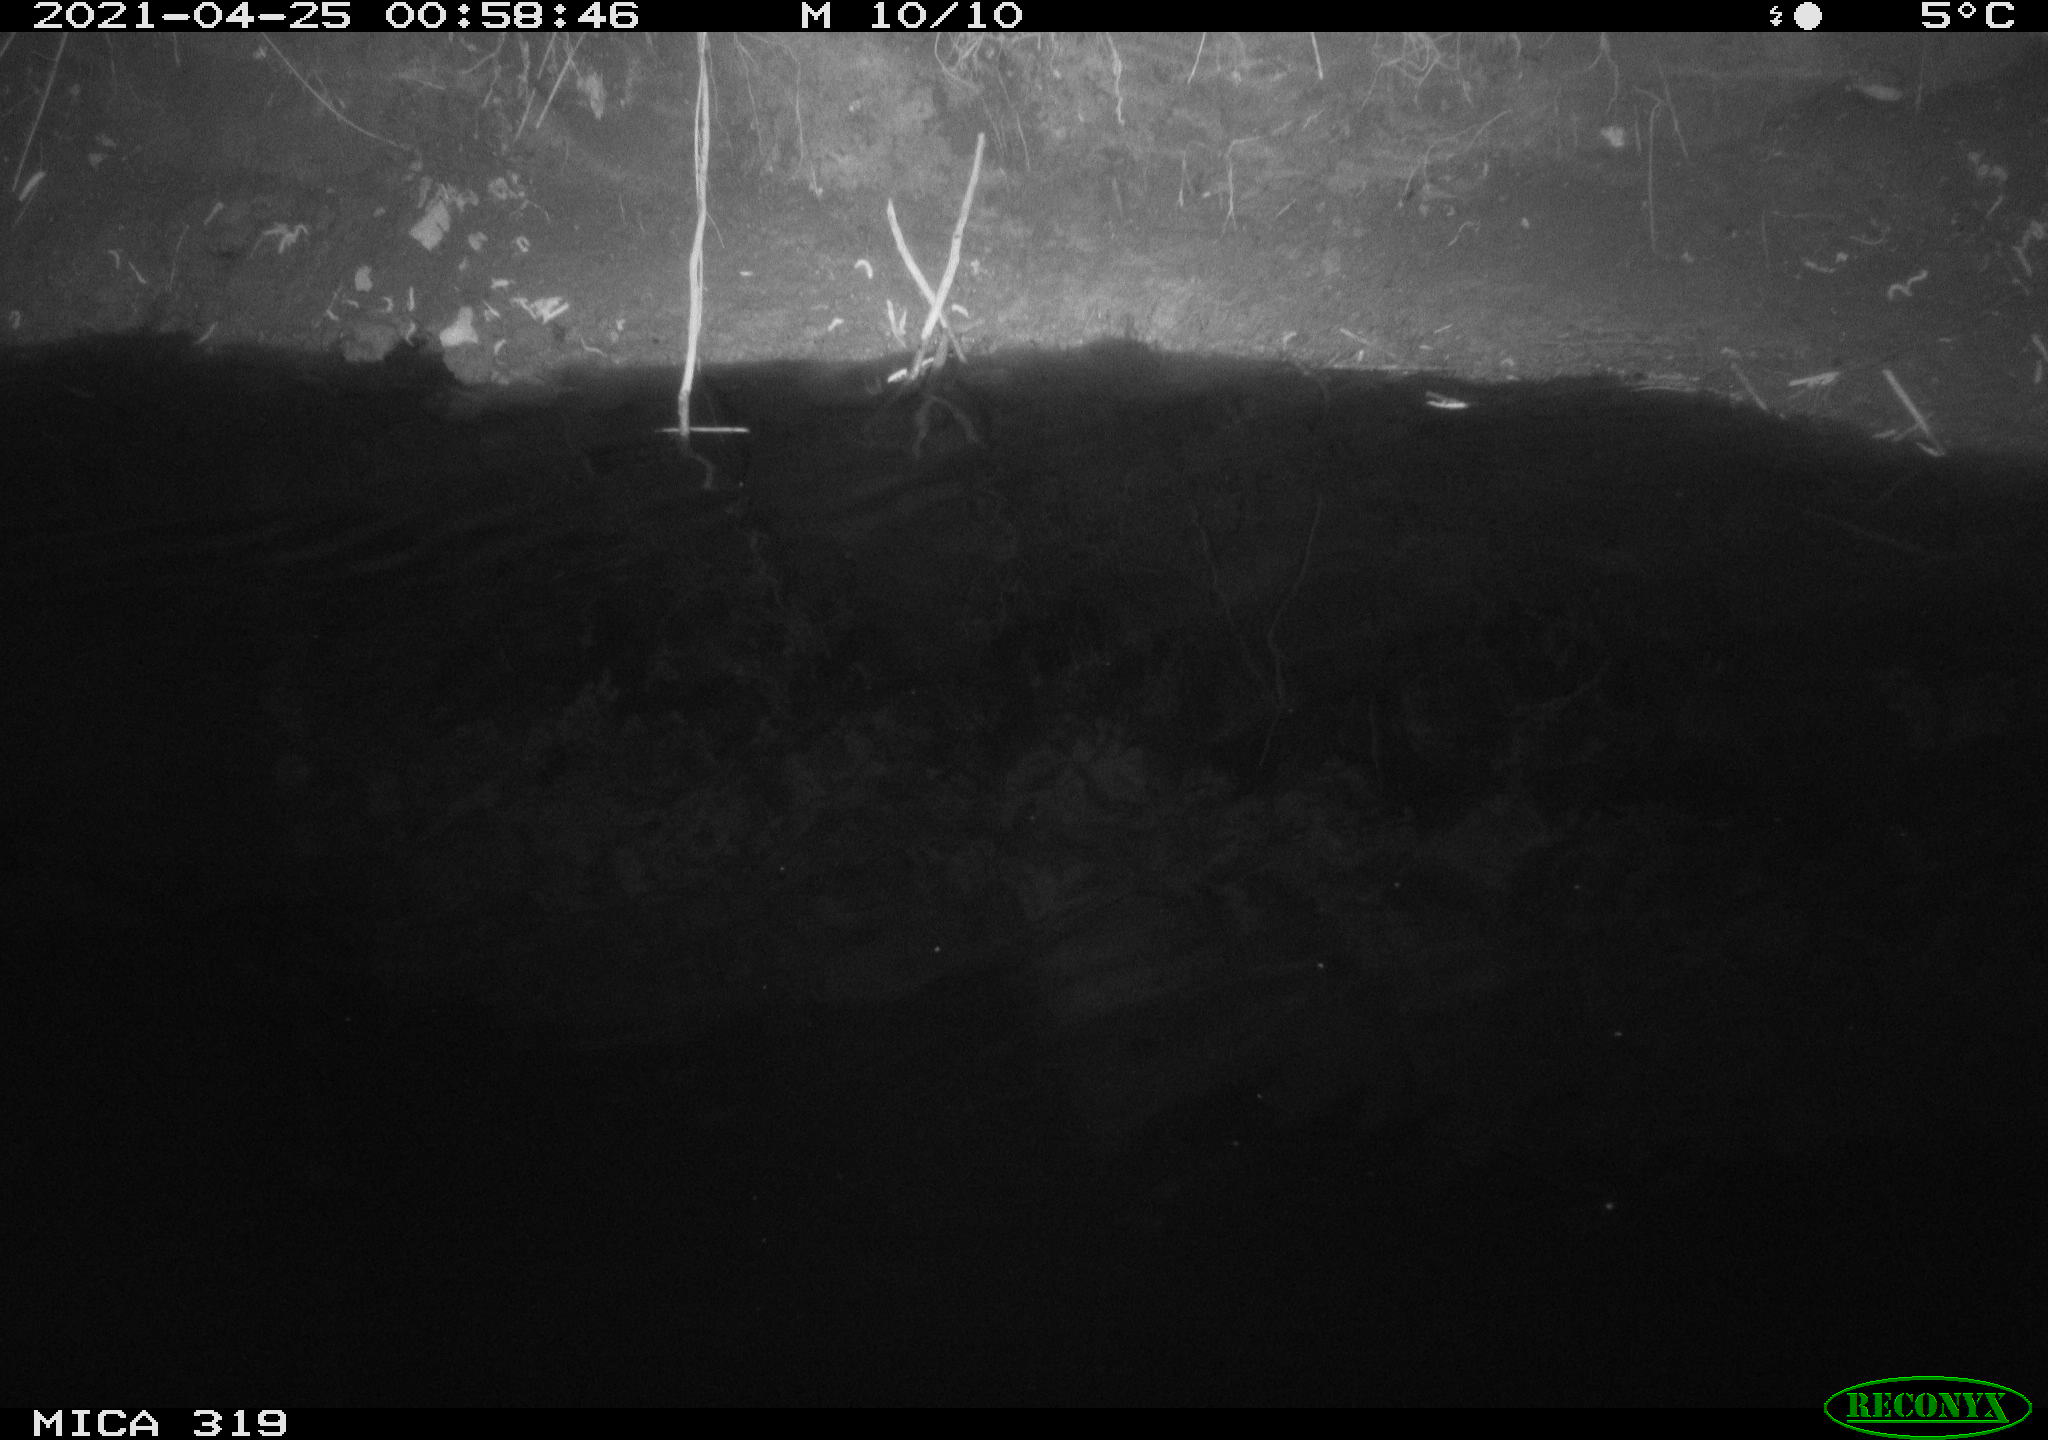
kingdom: Animalia
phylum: Chordata
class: Aves
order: Anseriformes
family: Anatidae
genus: Anas
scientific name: Anas platyrhynchos
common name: Mallard
